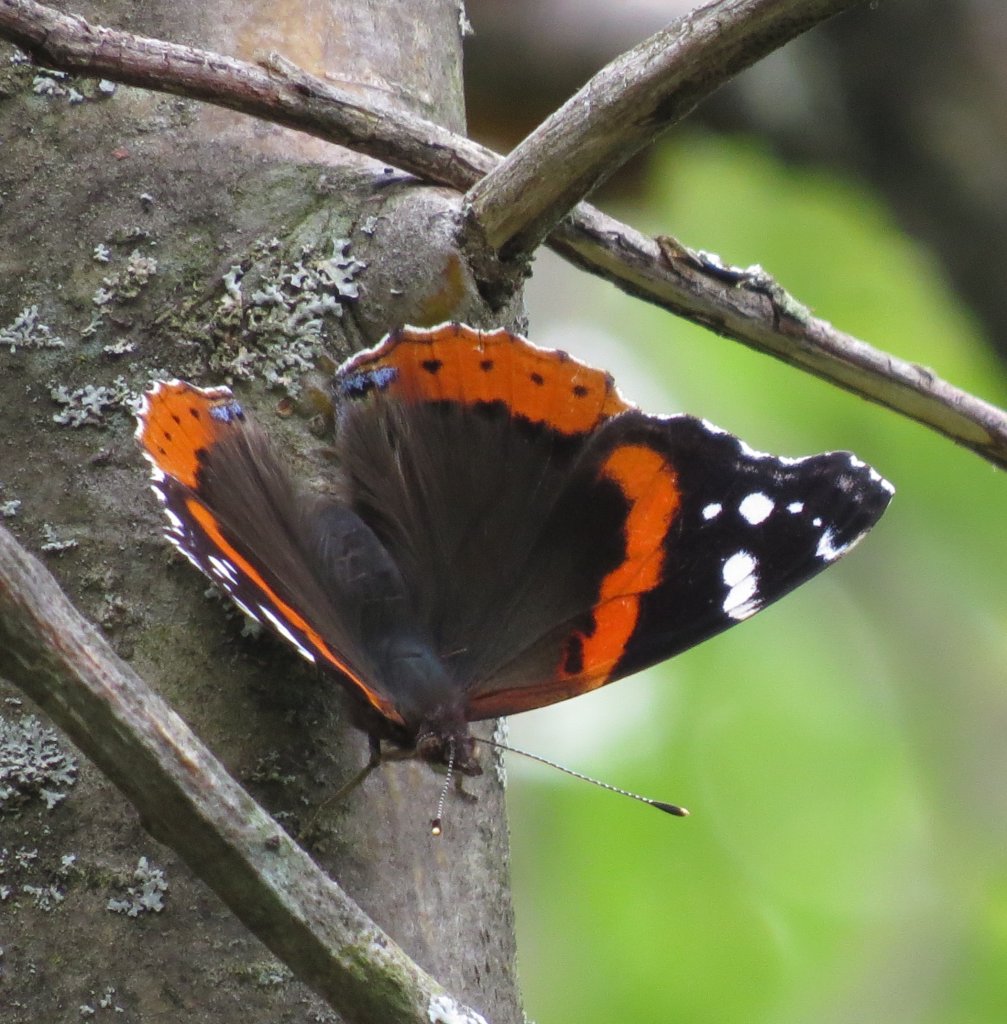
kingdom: Animalia
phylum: Arthropoda
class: Insecta
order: Lepidoptera
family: Nymphalidae
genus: Vanessa
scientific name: Vanessa atalanta
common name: Red Admiral
